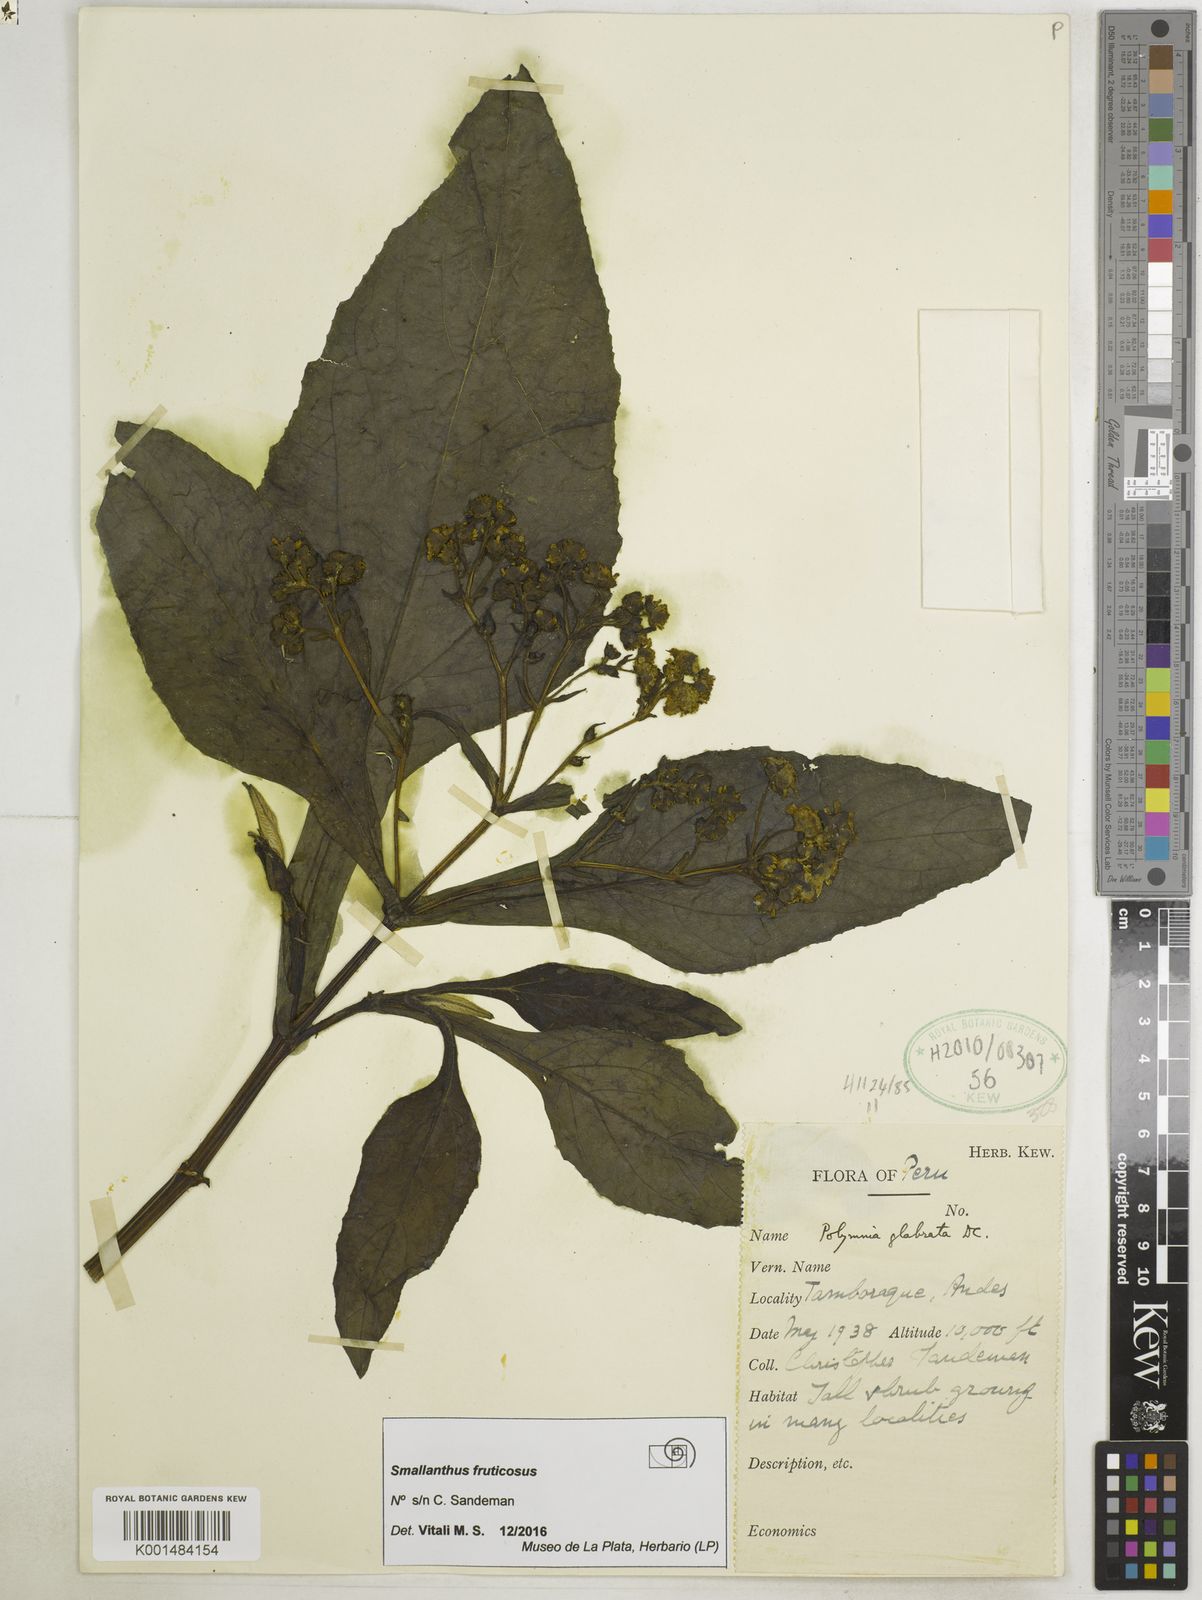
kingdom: Plantae
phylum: Tracheophyta
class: Magnoliopsida
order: Asterales
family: Asteraceae
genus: Smallanthus
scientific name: Smallanthus fruticosus
